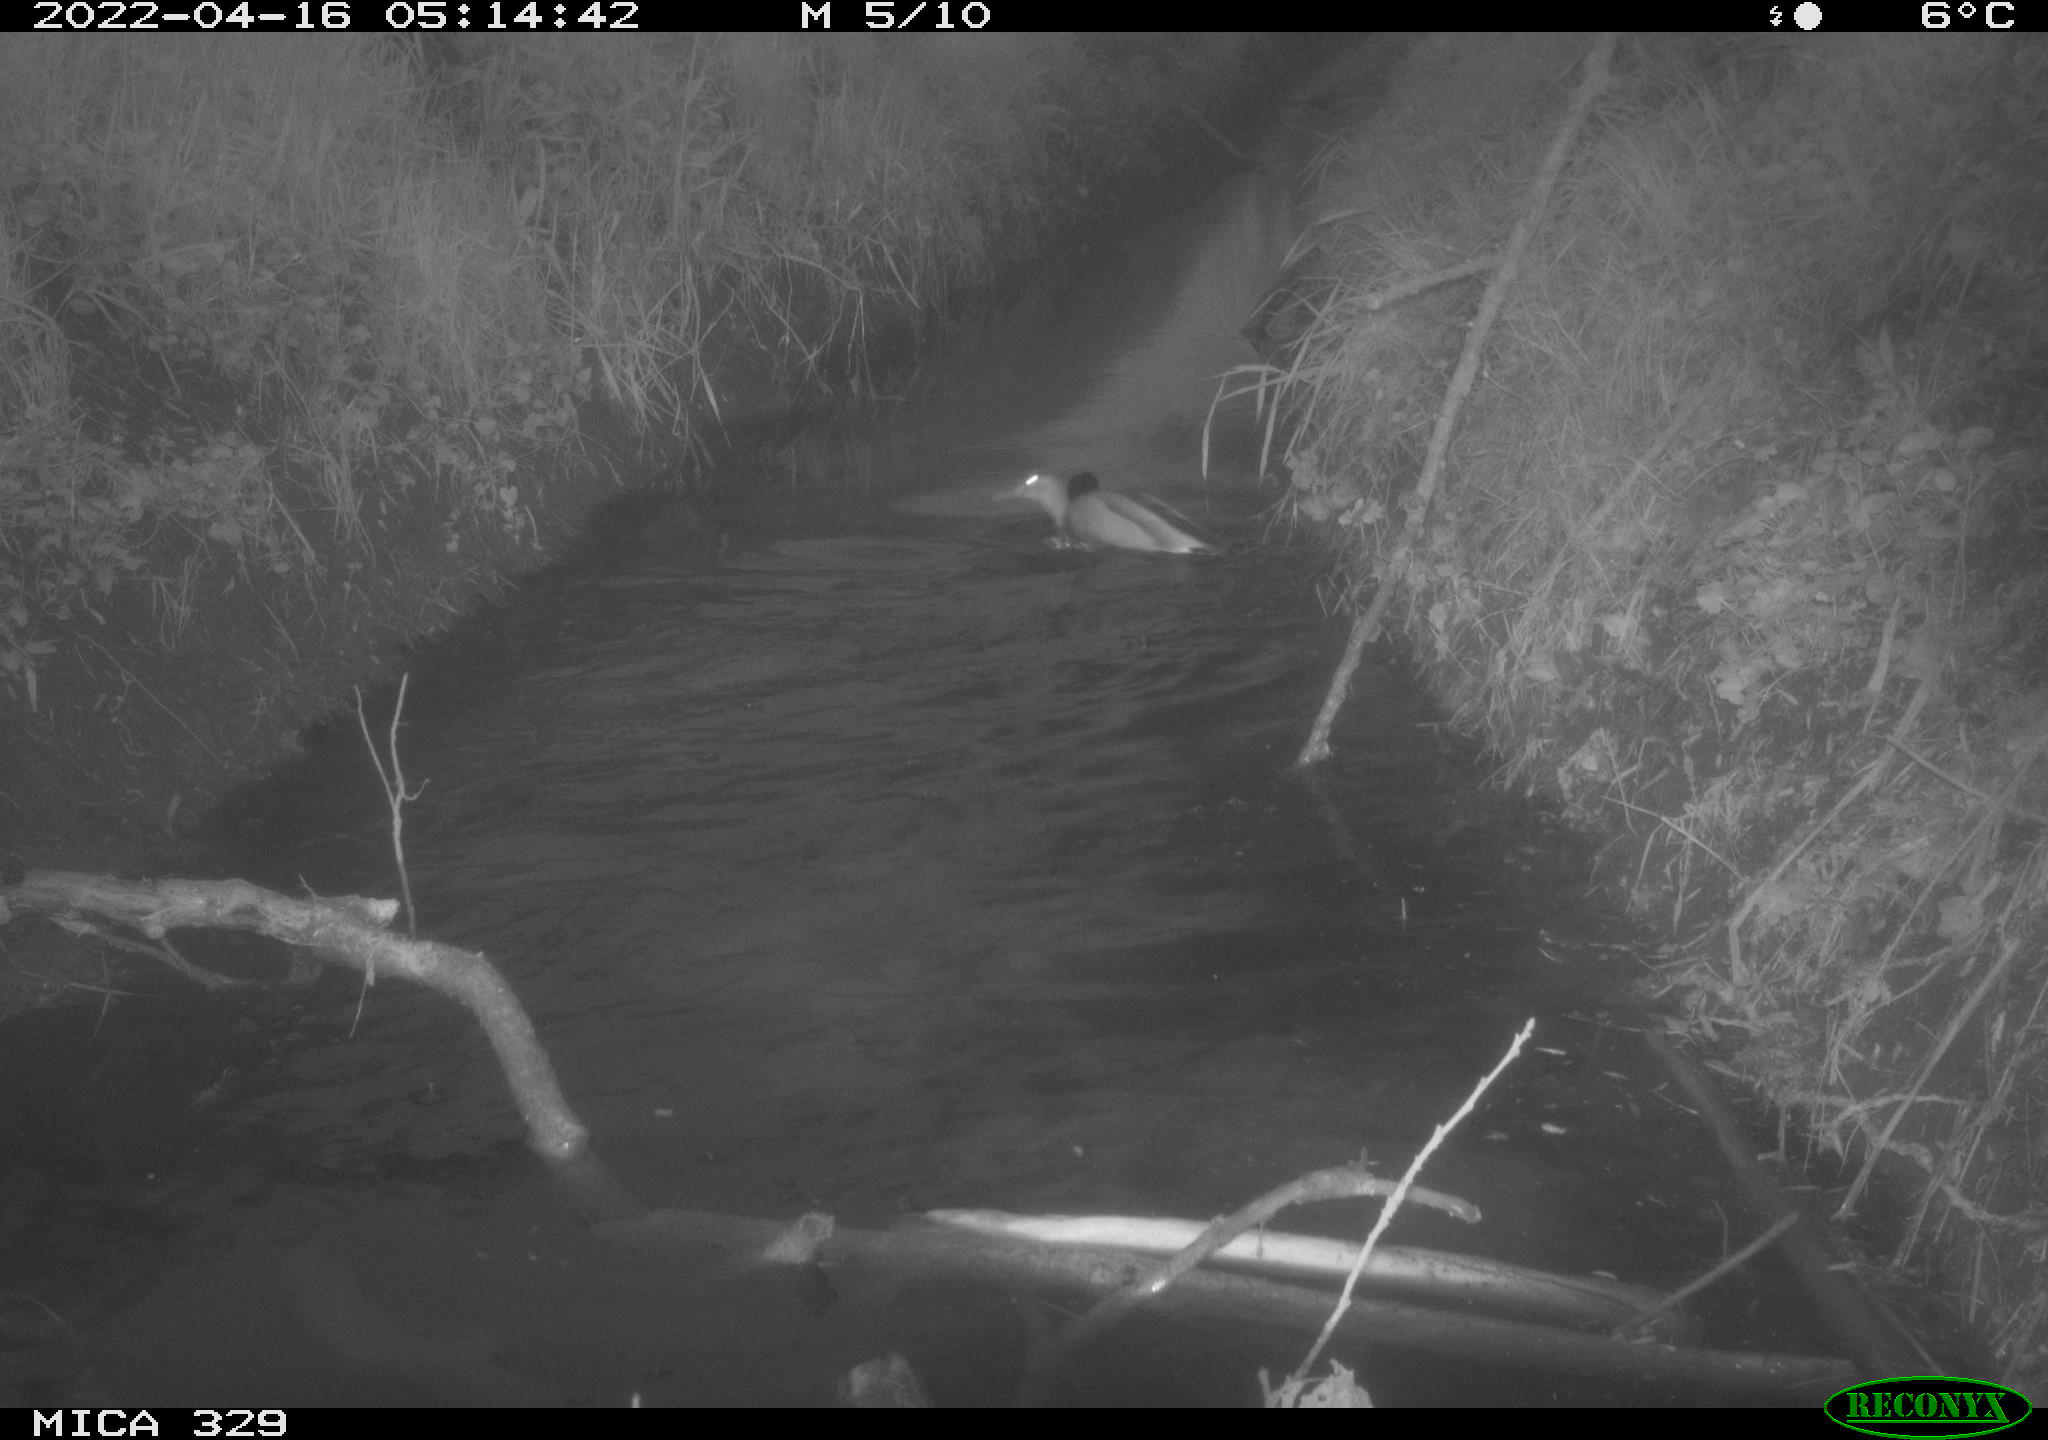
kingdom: Animalia
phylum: Chordata
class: Aves
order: Anseriformes
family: Anatidae
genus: Anas
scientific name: Anas platyrhynchos
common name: Mallard
